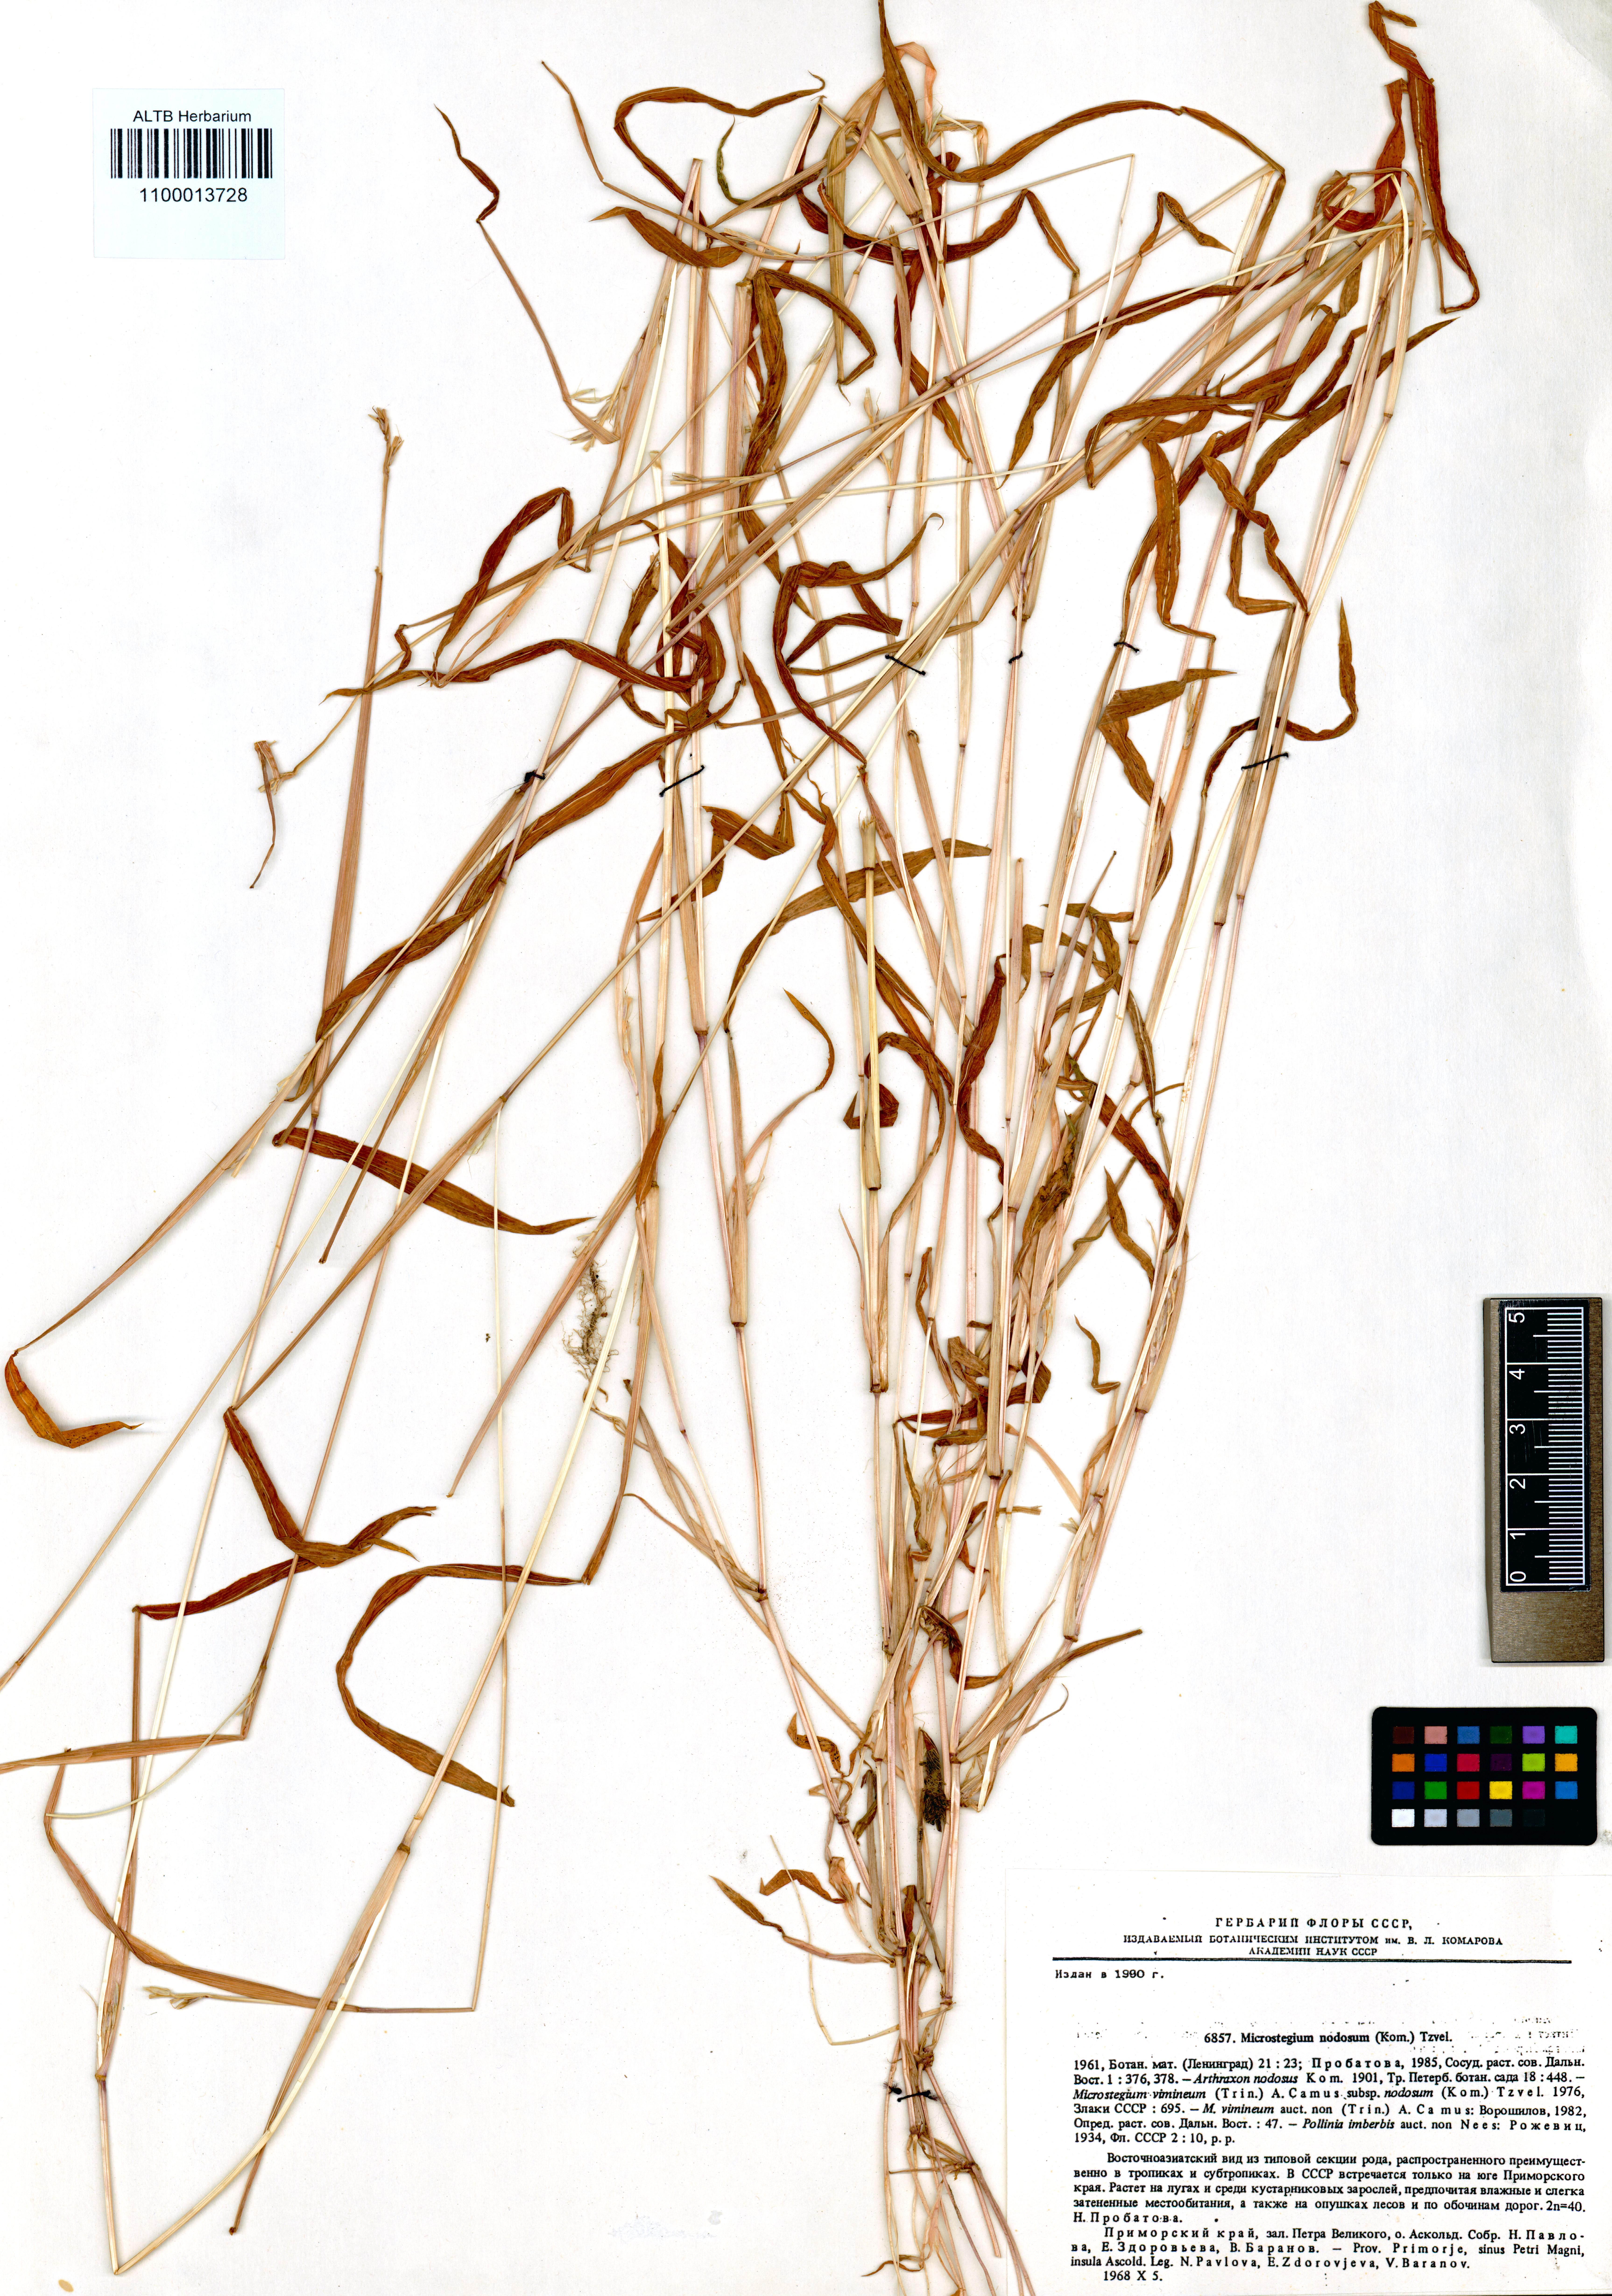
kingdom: Plantae
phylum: Tracheophyta
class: Liliopsida
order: Poales
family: Poaceae
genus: Microstegium
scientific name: Microstegium vimineum
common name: Japanese stiltgrass
